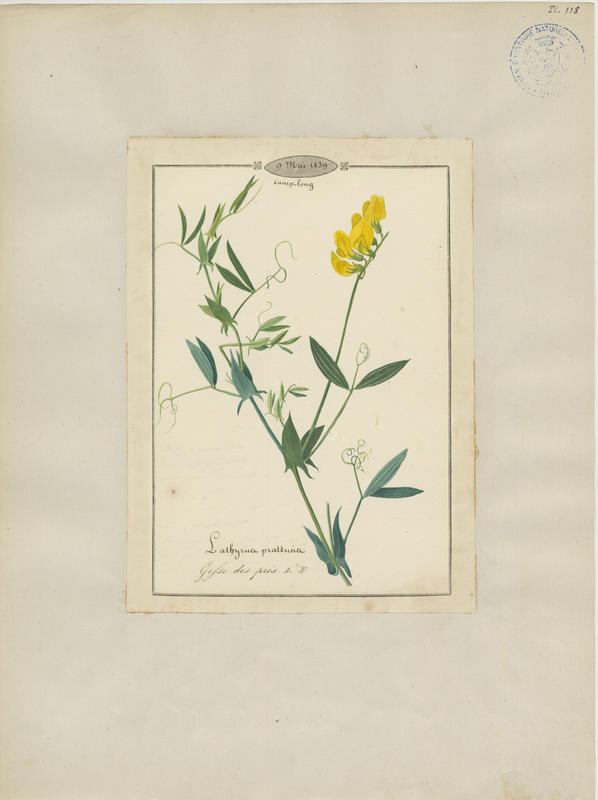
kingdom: Plantae
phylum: Tracheophyta
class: Magnoliopsida
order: Fabales
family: Fabaceae
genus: Lathyrus
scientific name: Lathyrus pratensis
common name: Meadow vetchling
